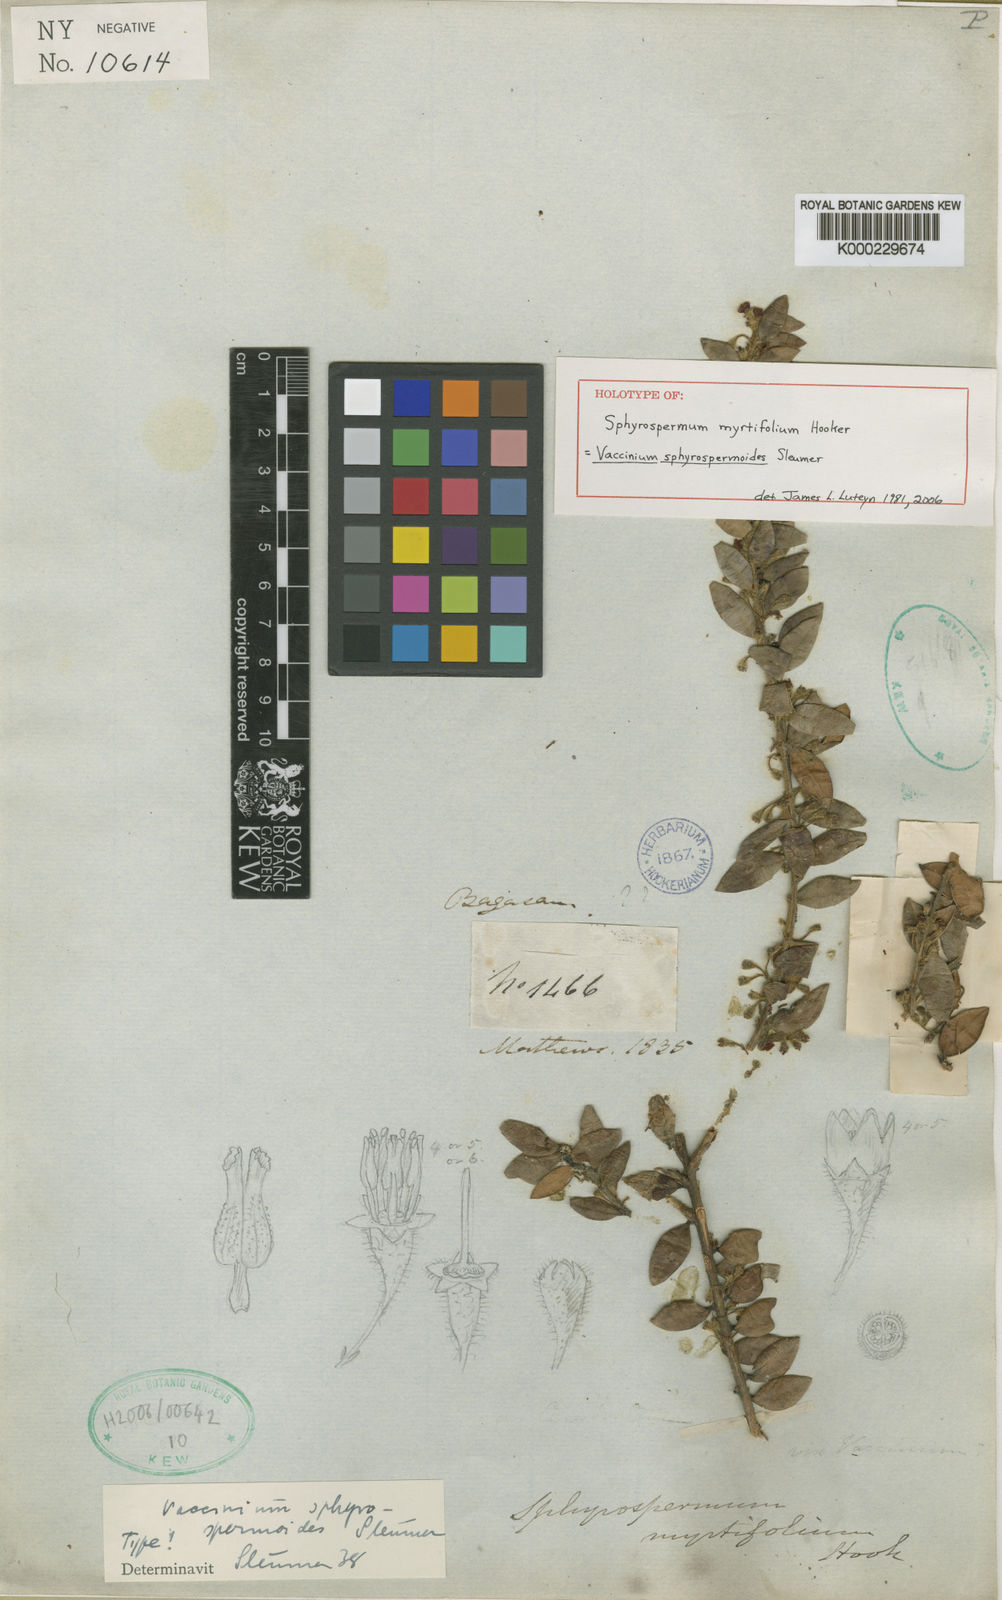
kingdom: Plantae
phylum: Tracheophyta
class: Magnoliopsida
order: Ericales
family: Ericaceae
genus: Sphyrospermum
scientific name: Sphyrospermum myrtifolium
